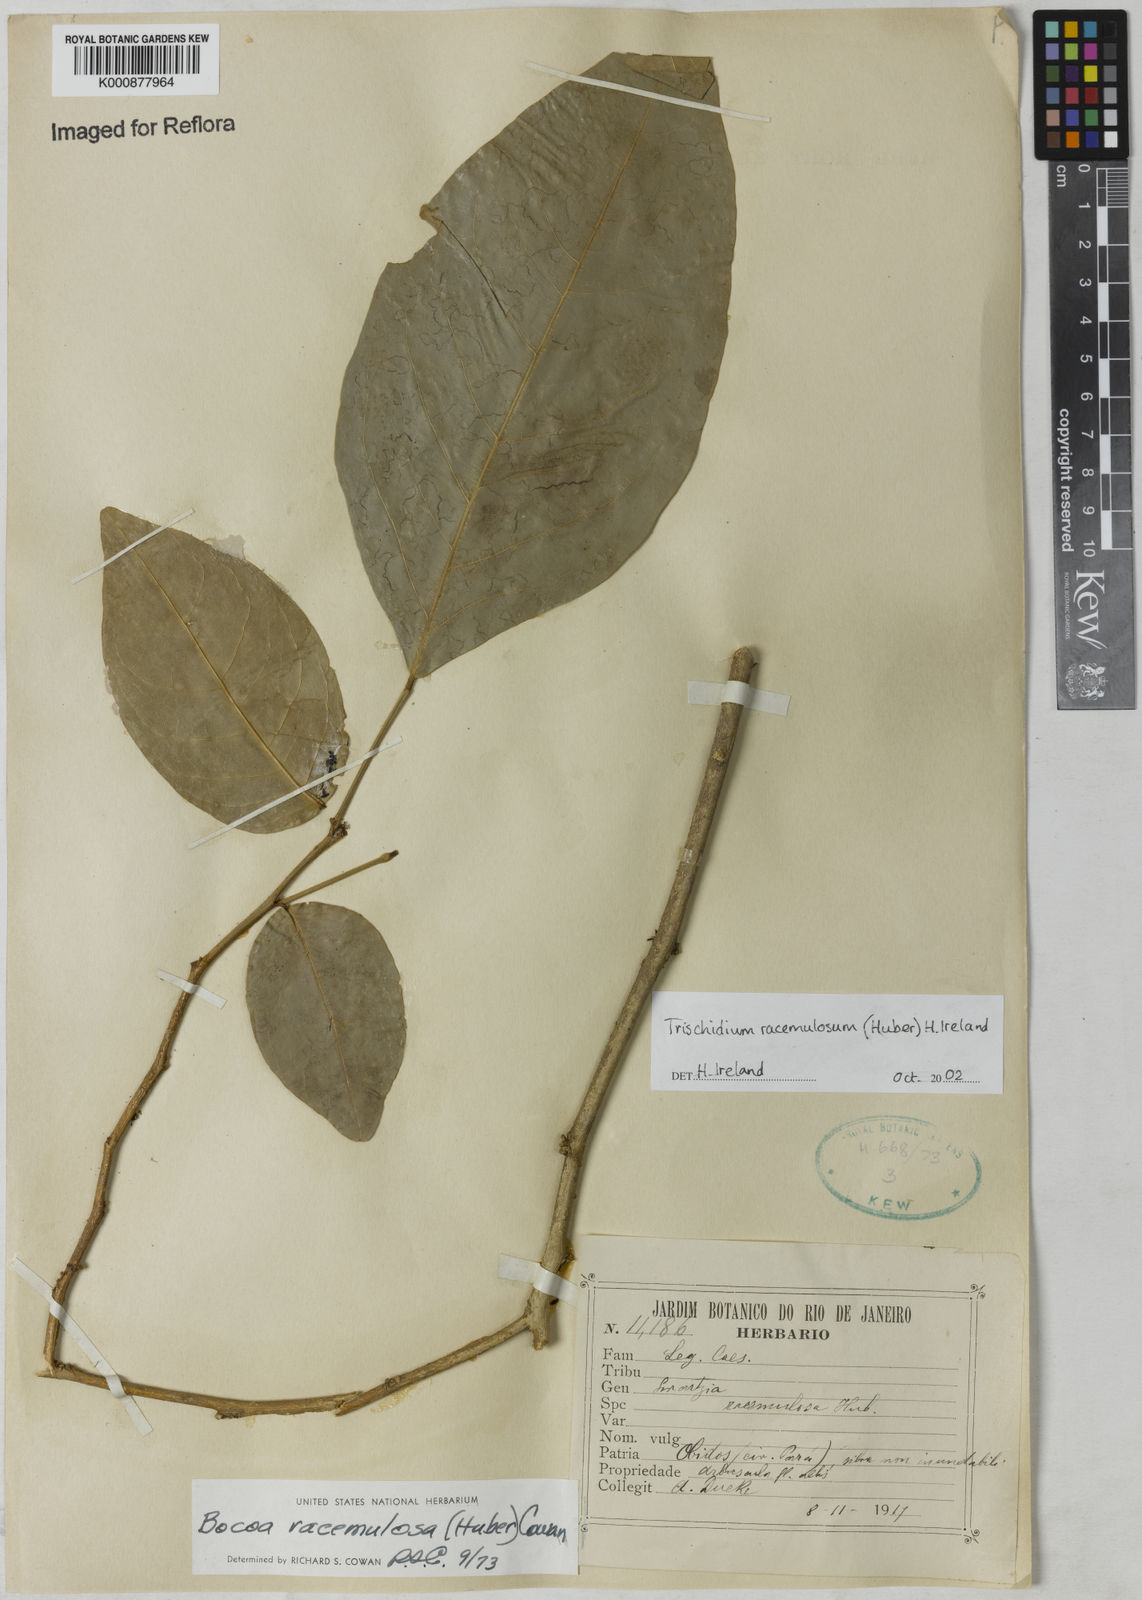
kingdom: Plantae
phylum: Tracheophyta
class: Magnoliopsida
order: Fabales
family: Fabaceae
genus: Trischidium
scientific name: Trischidium racemulosum
